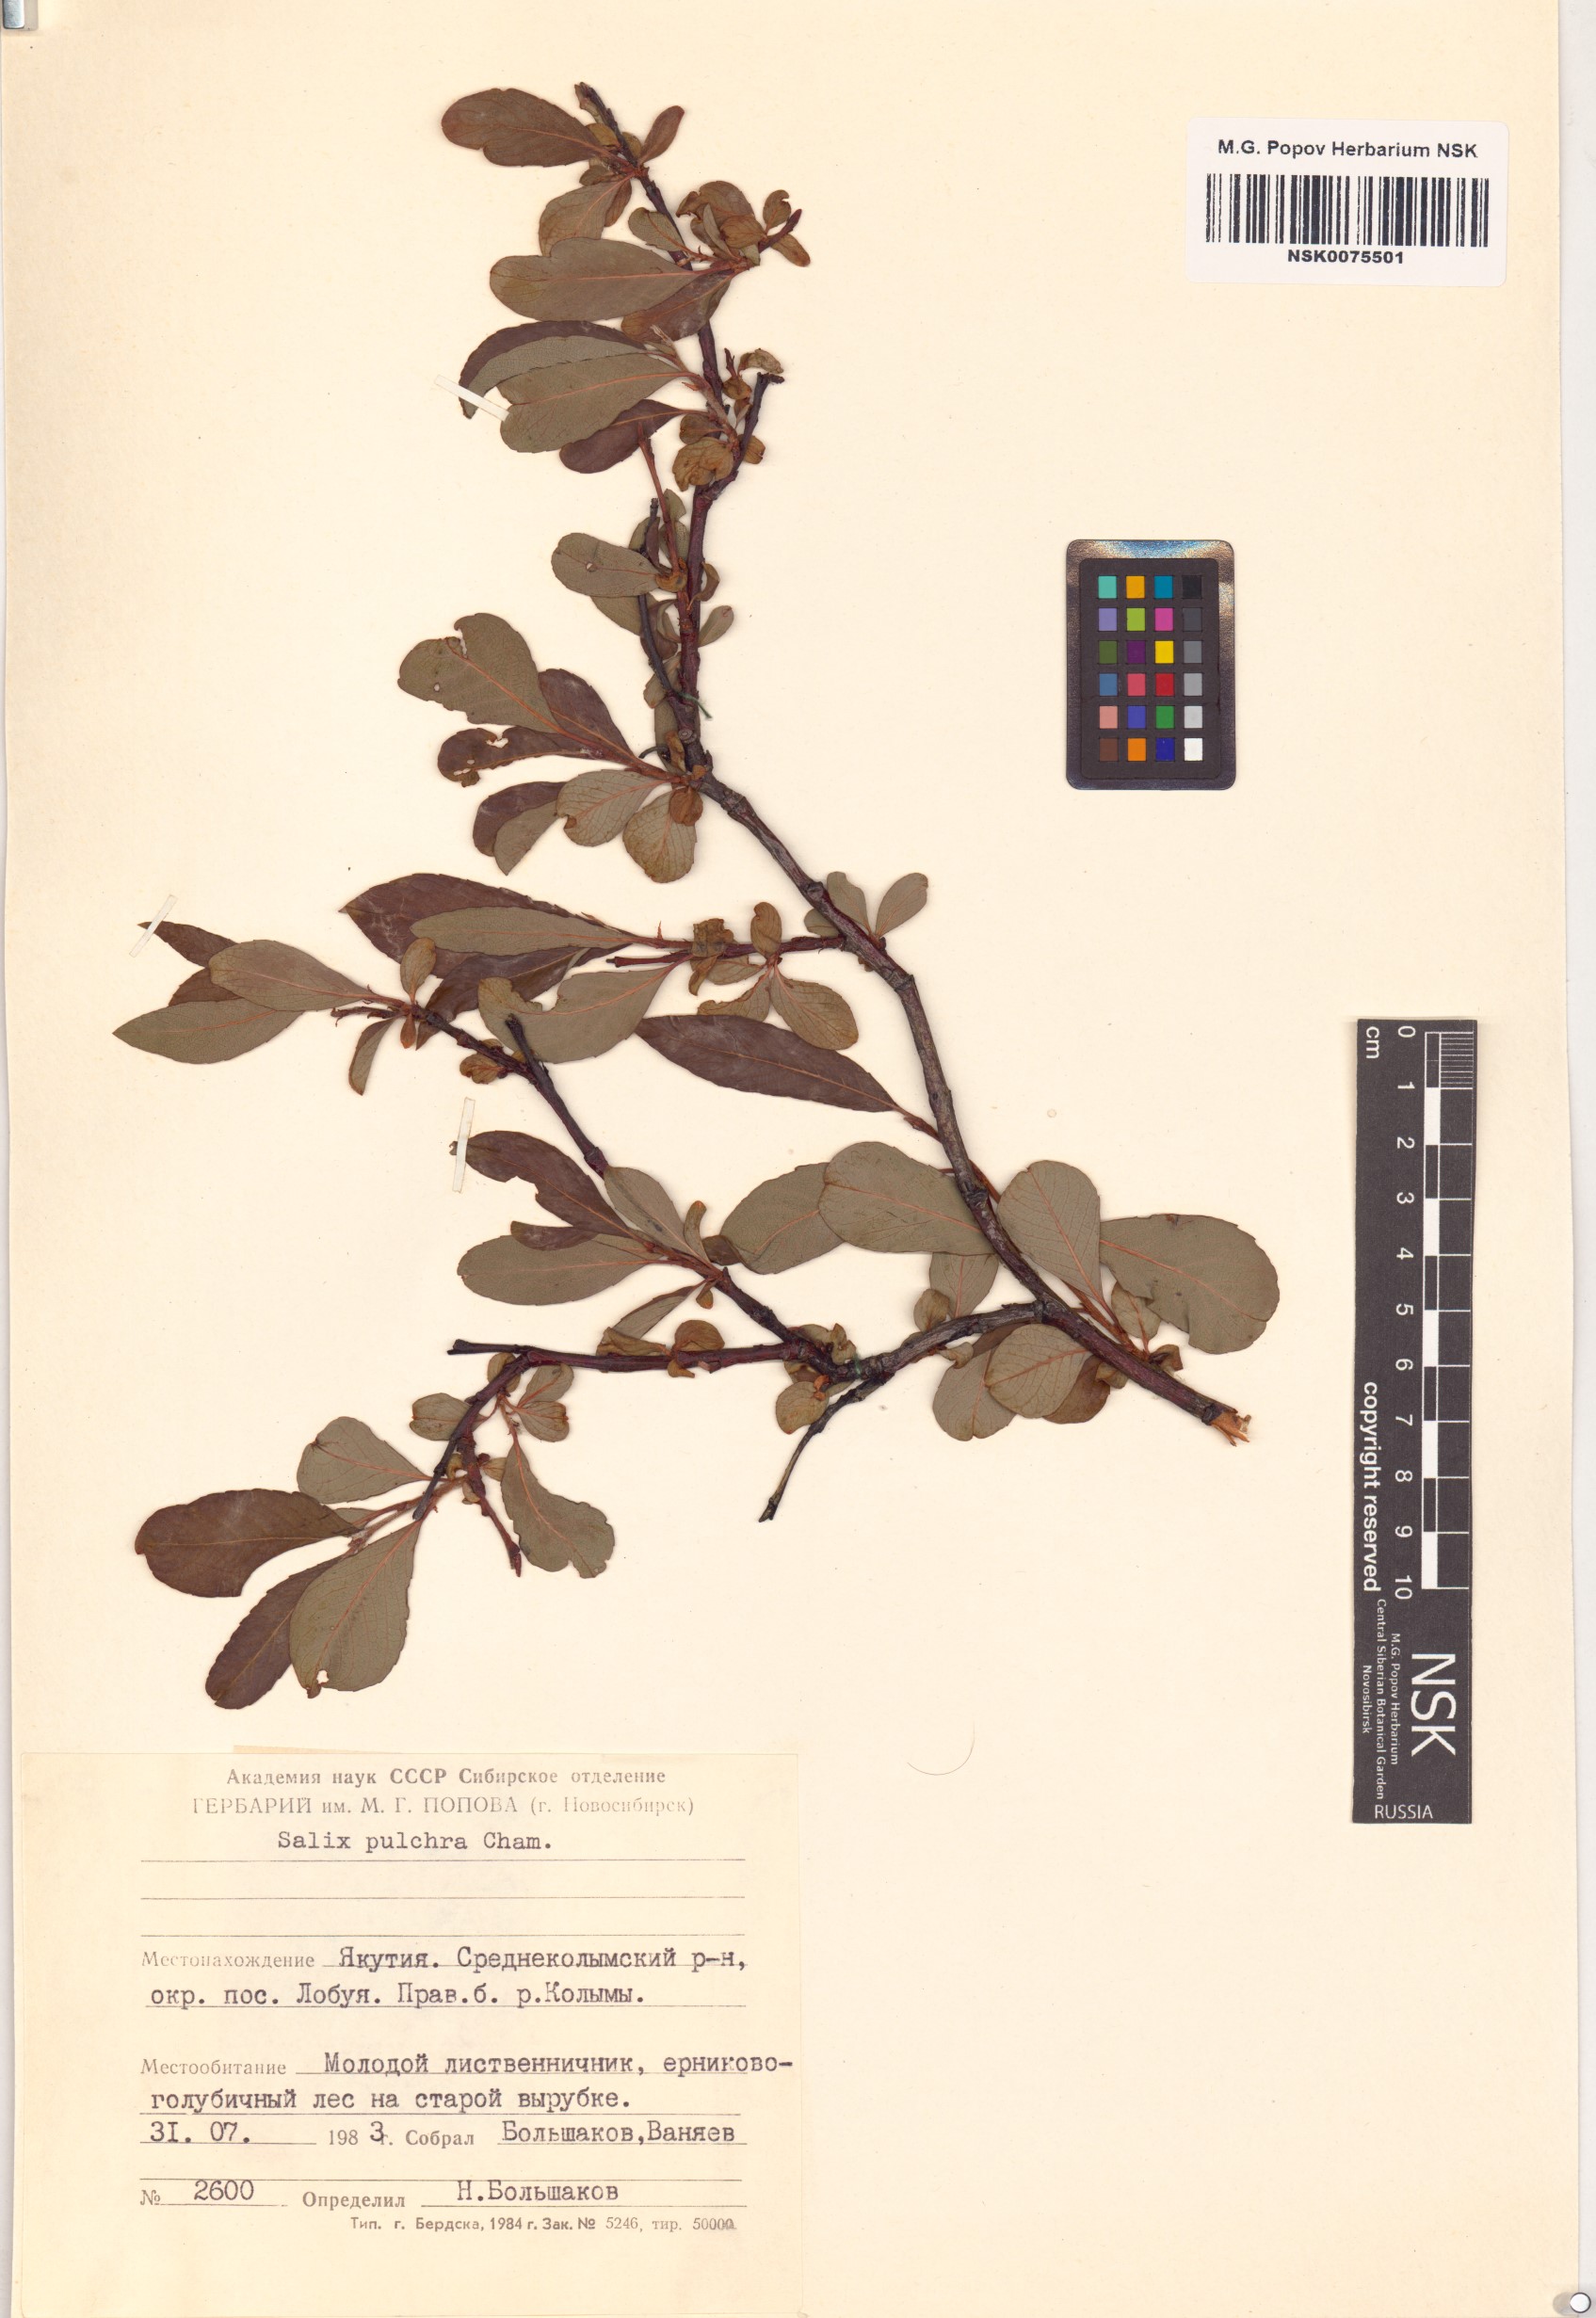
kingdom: Plantae
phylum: Tracheophyta
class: Magnoliopsida
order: Malpighiales
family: Salicaceae
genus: Salix
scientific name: Salix pulchra
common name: Diamond-leaved willow
